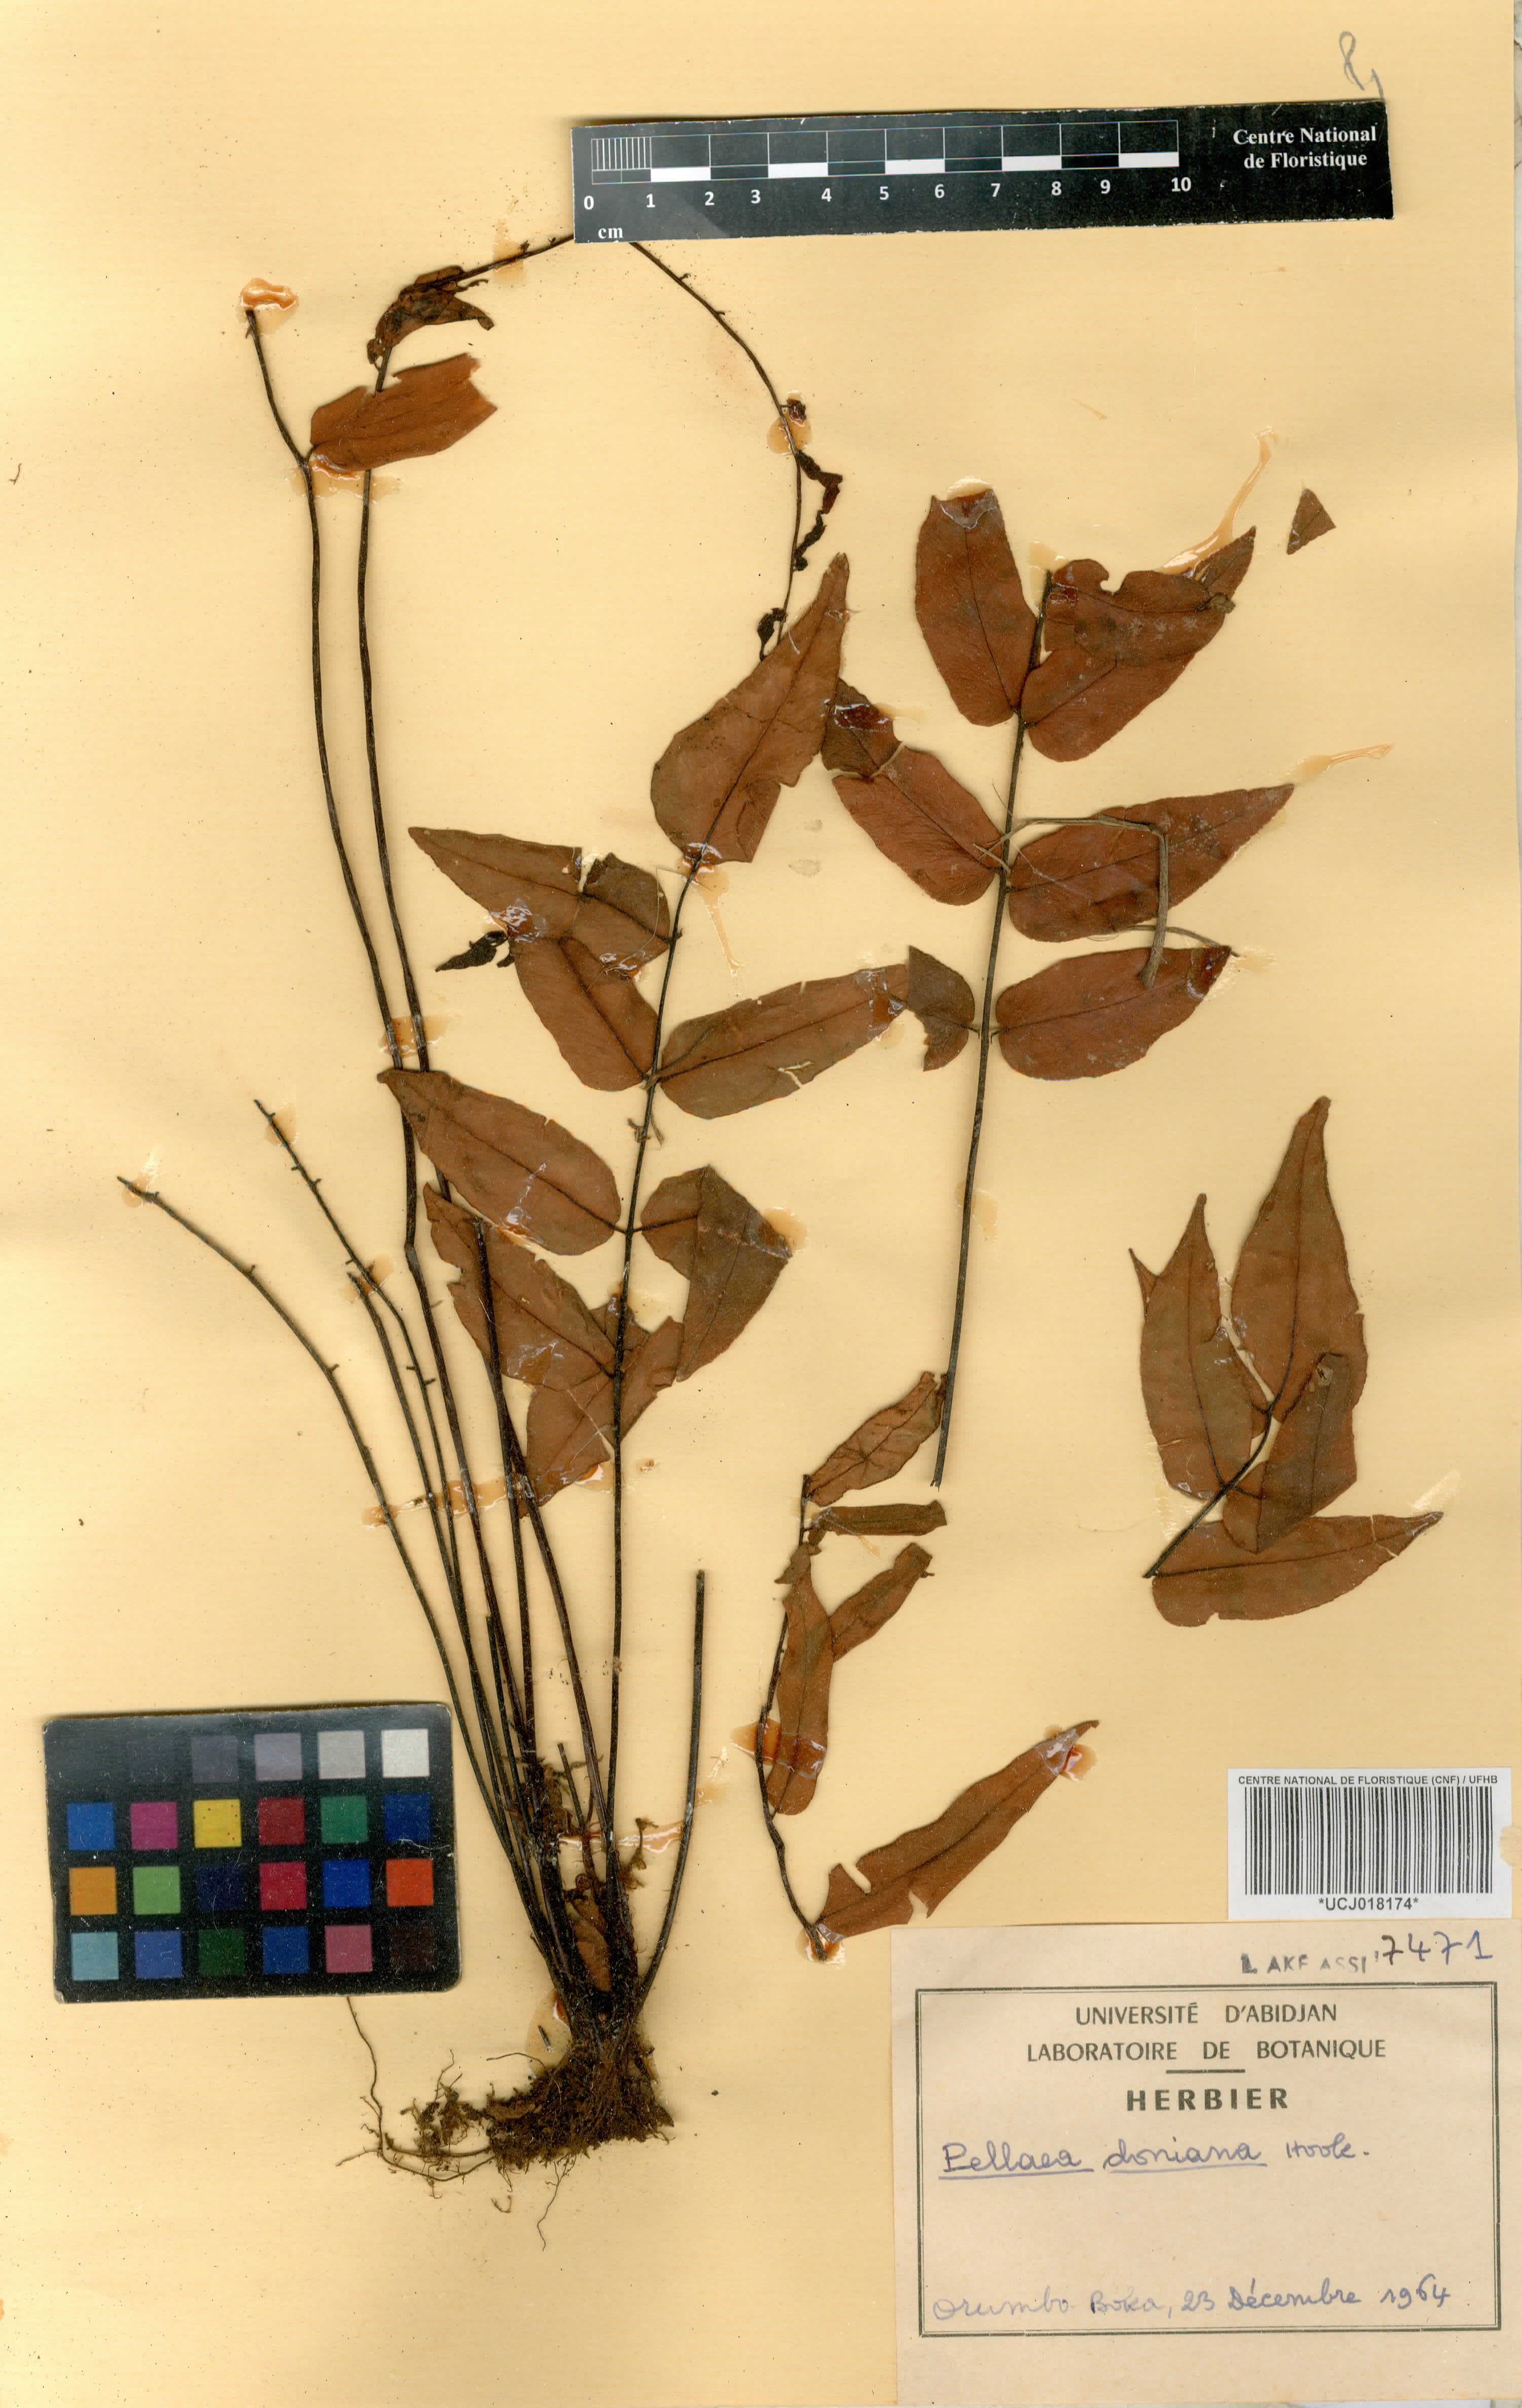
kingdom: Plantae
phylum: Tracheophyta
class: Polypodiopsida
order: Polypodiales
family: Pteridaceae
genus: Pellaea
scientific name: Pellaea doniana
